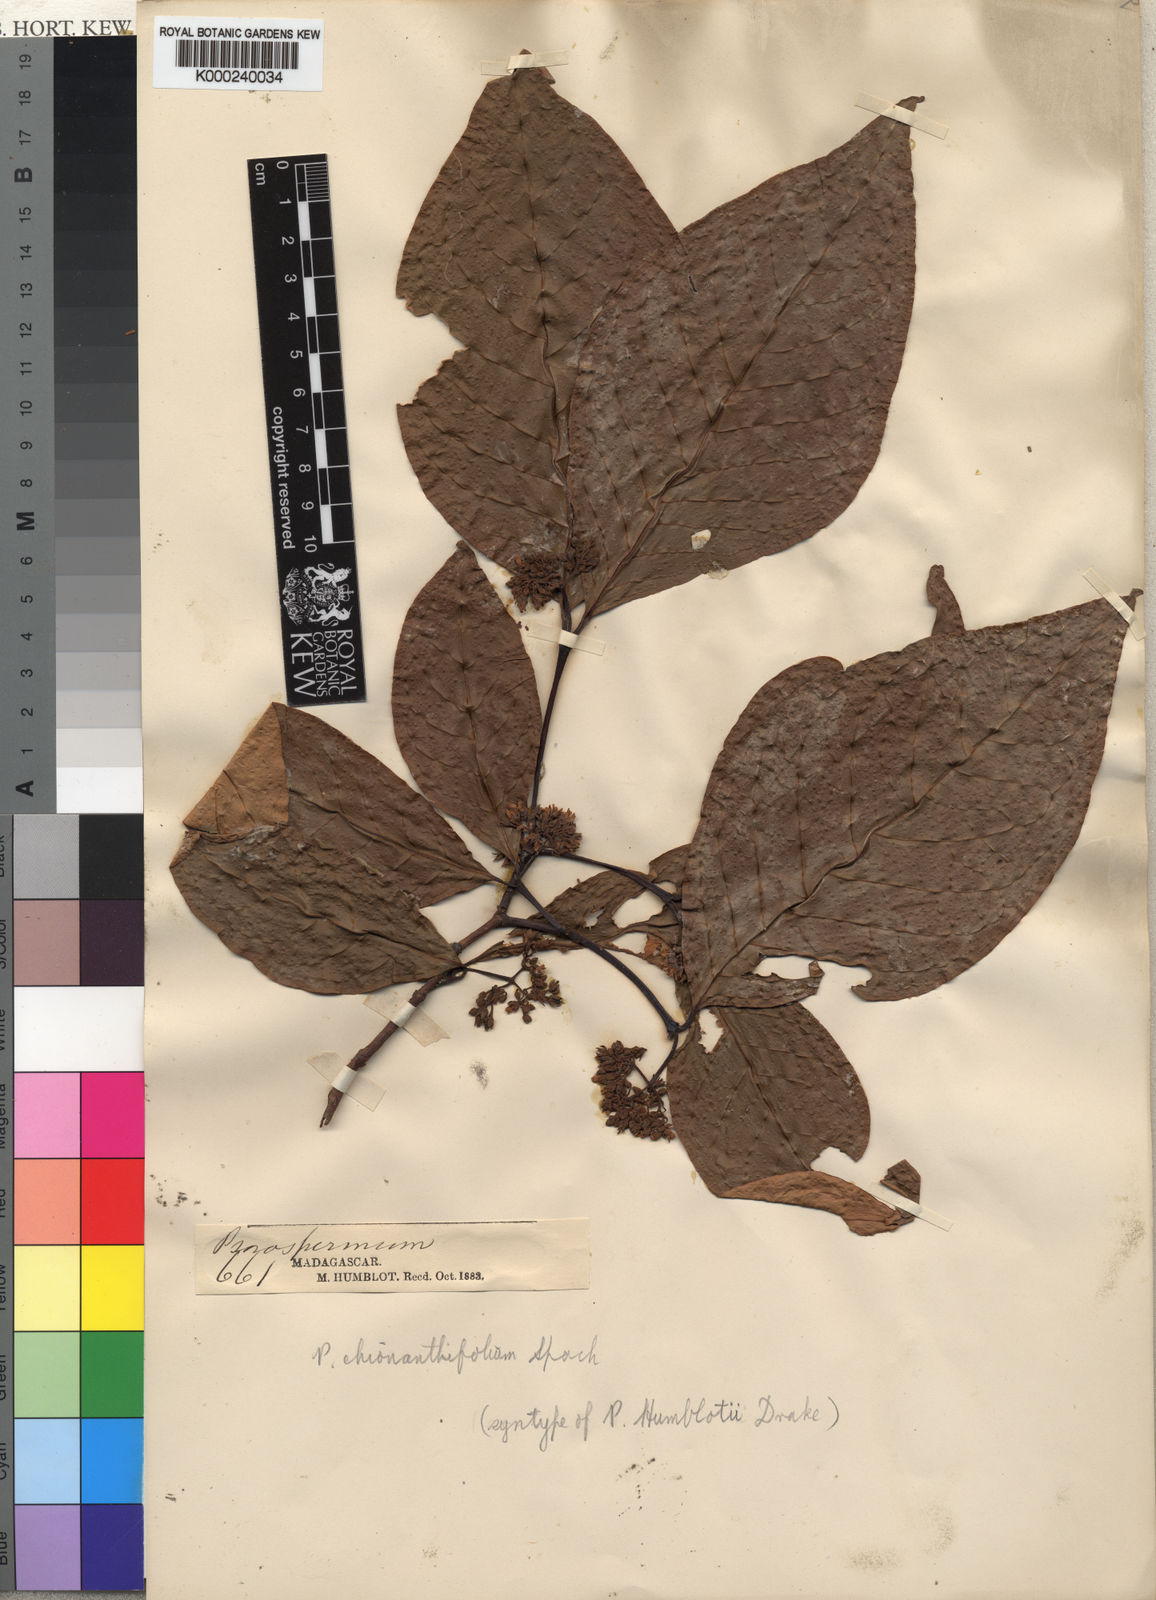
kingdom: Plantae
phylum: Tracheophyta
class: Magnoliopsida
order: Malpighiales
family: Hypericaceae
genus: Psorospermum
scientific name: Psorospermum chionanthifolium
